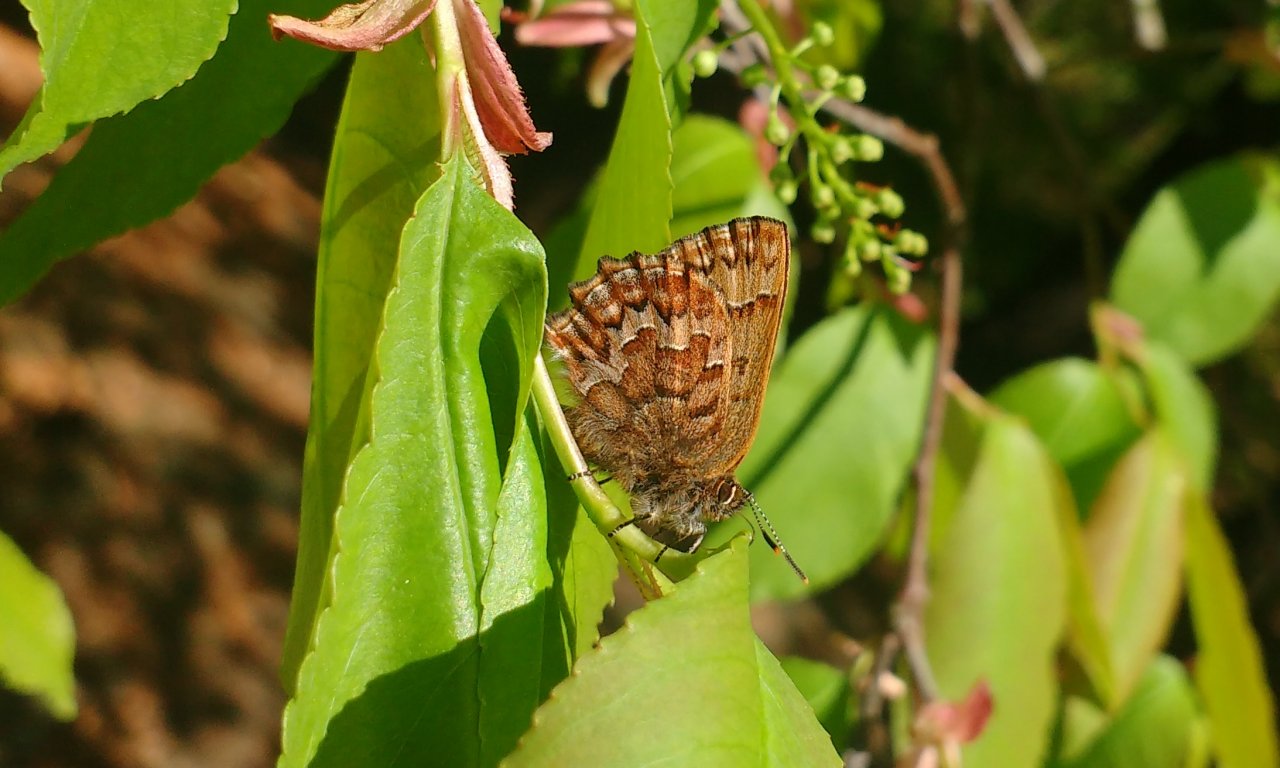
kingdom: Animalia
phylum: Arthropoda
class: Insecta
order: Lepidoptera
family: Lycaenidae
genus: Incisalia
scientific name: Incisalia niphon
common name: Eastern Pine Elfin
